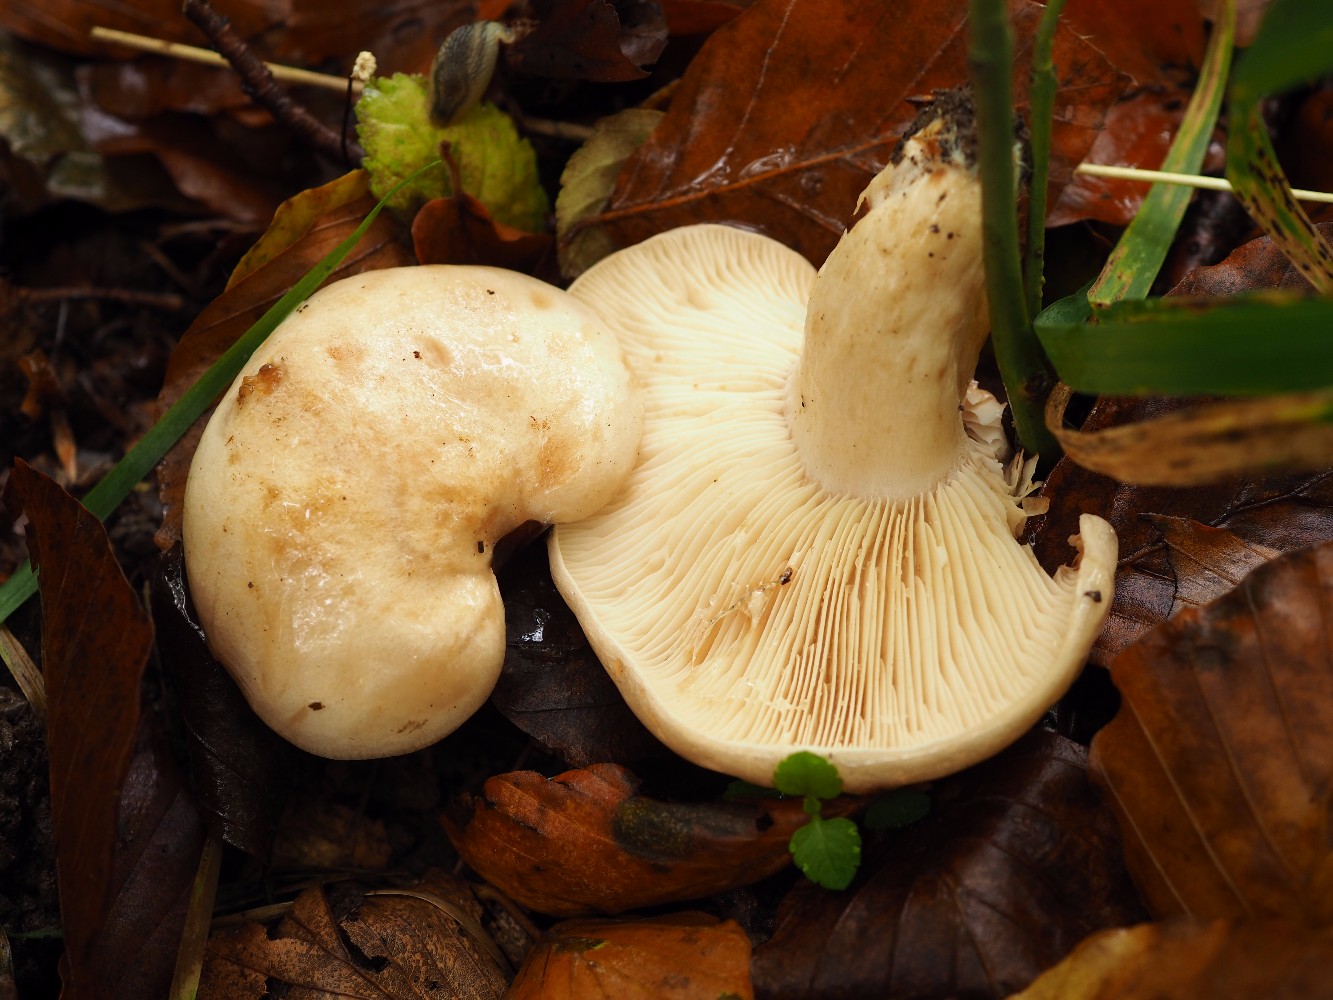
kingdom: Fungi
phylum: Basidiomycota
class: Agaricomycetes
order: Russulales
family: Russulaceae
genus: Lactarius
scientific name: Lactarius pallidus
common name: bleg mælkehat
